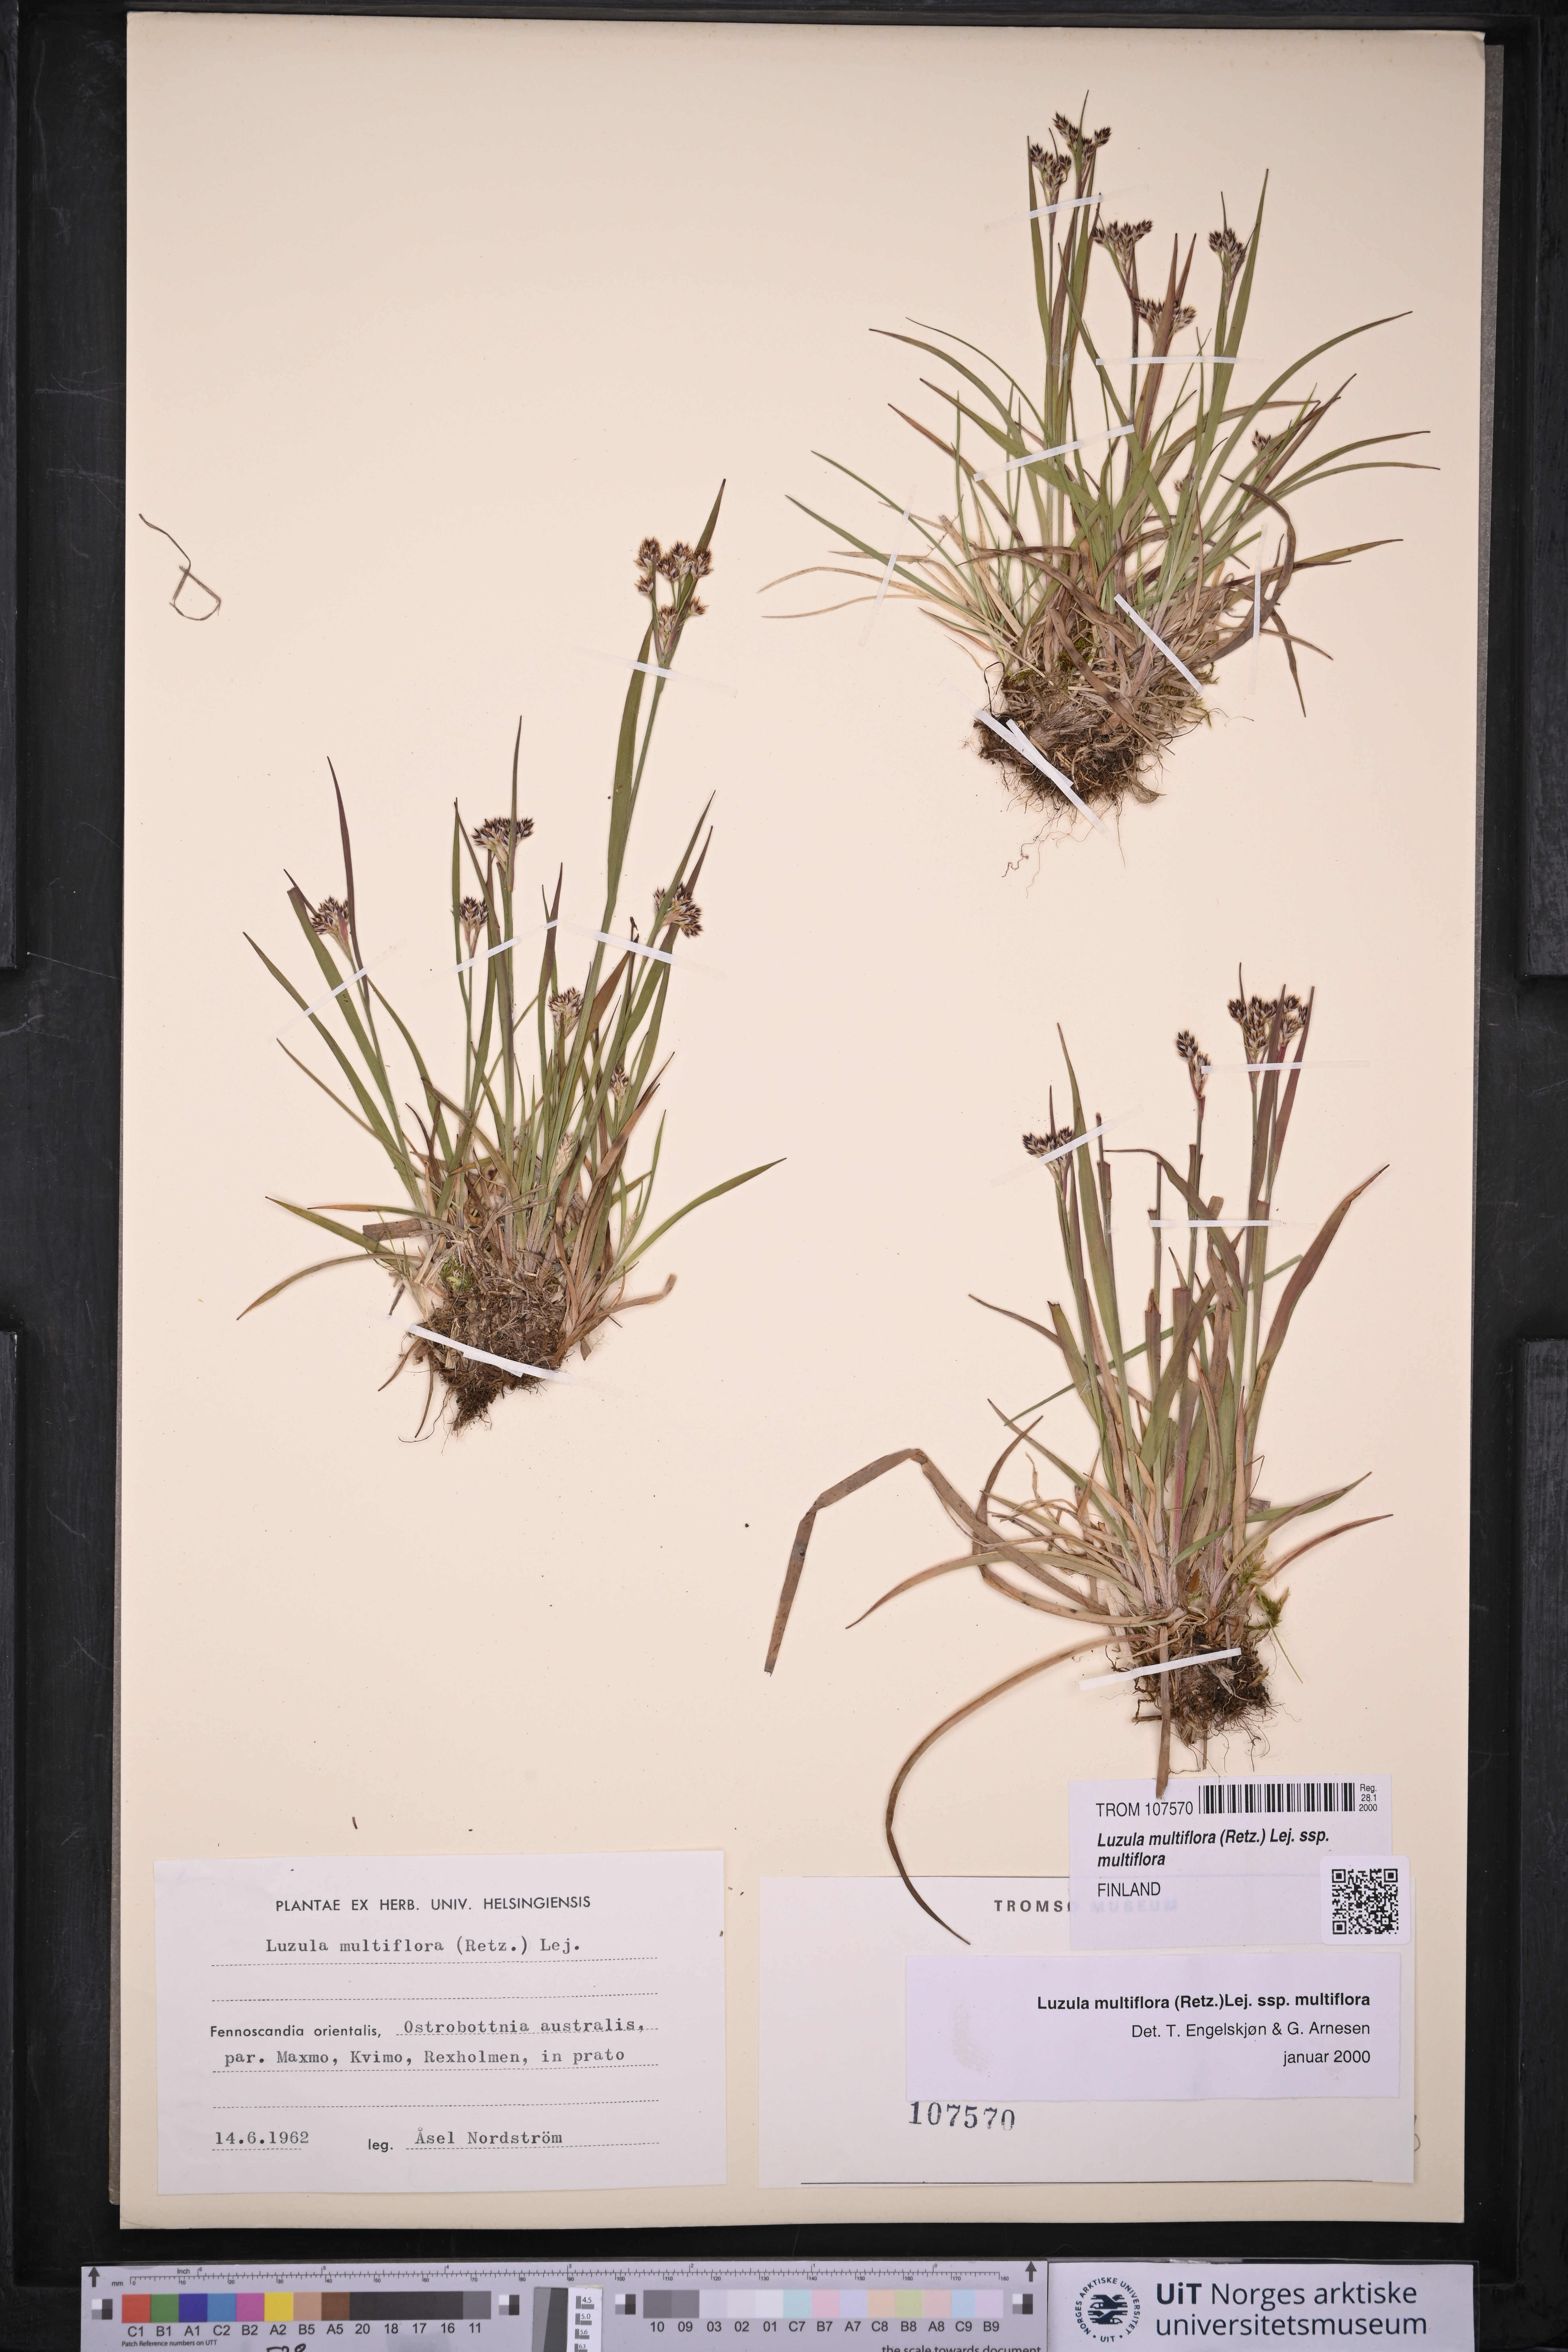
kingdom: Plantae
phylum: Tracheophyta
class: Liliopsida
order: Poales
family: Juncaceae
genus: Luzula
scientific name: Luzula multiflora
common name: Heath wood-rush
